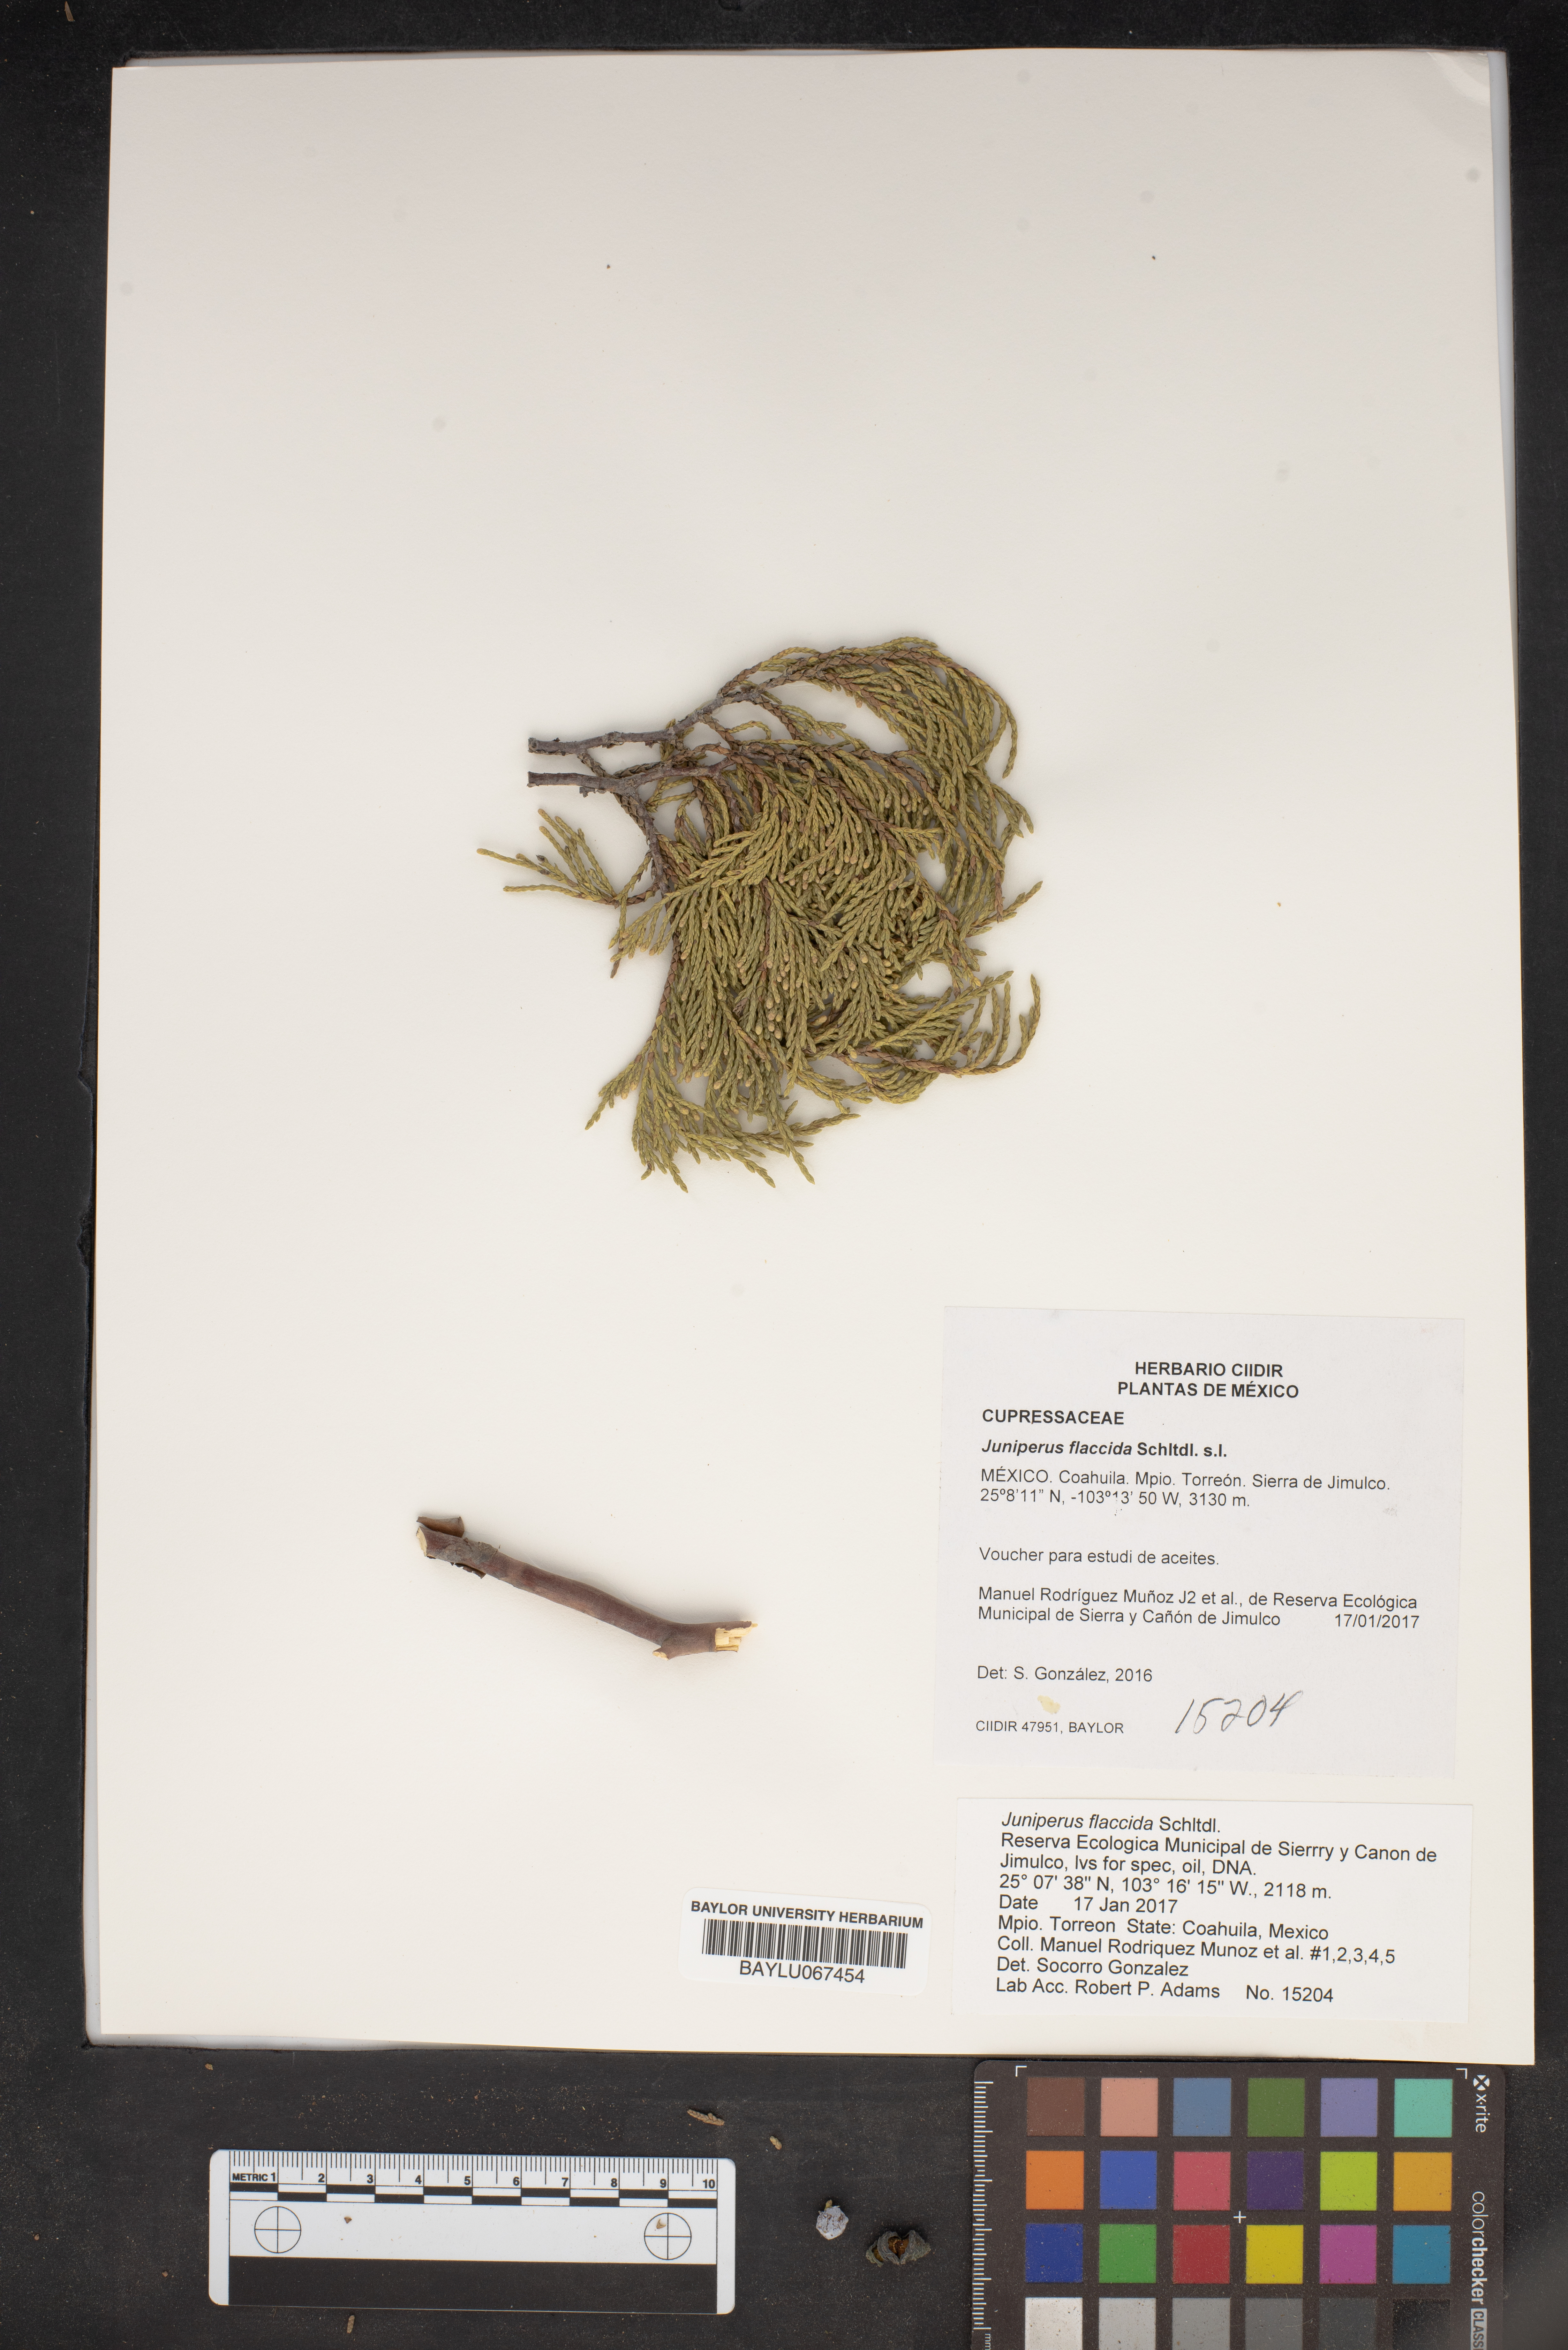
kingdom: Plantae
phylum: Tracheophyta
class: Pinopsida
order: Pinales
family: Cupressaceae
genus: Juniperus
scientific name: Juniperus flaccida
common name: Drooping juniper
